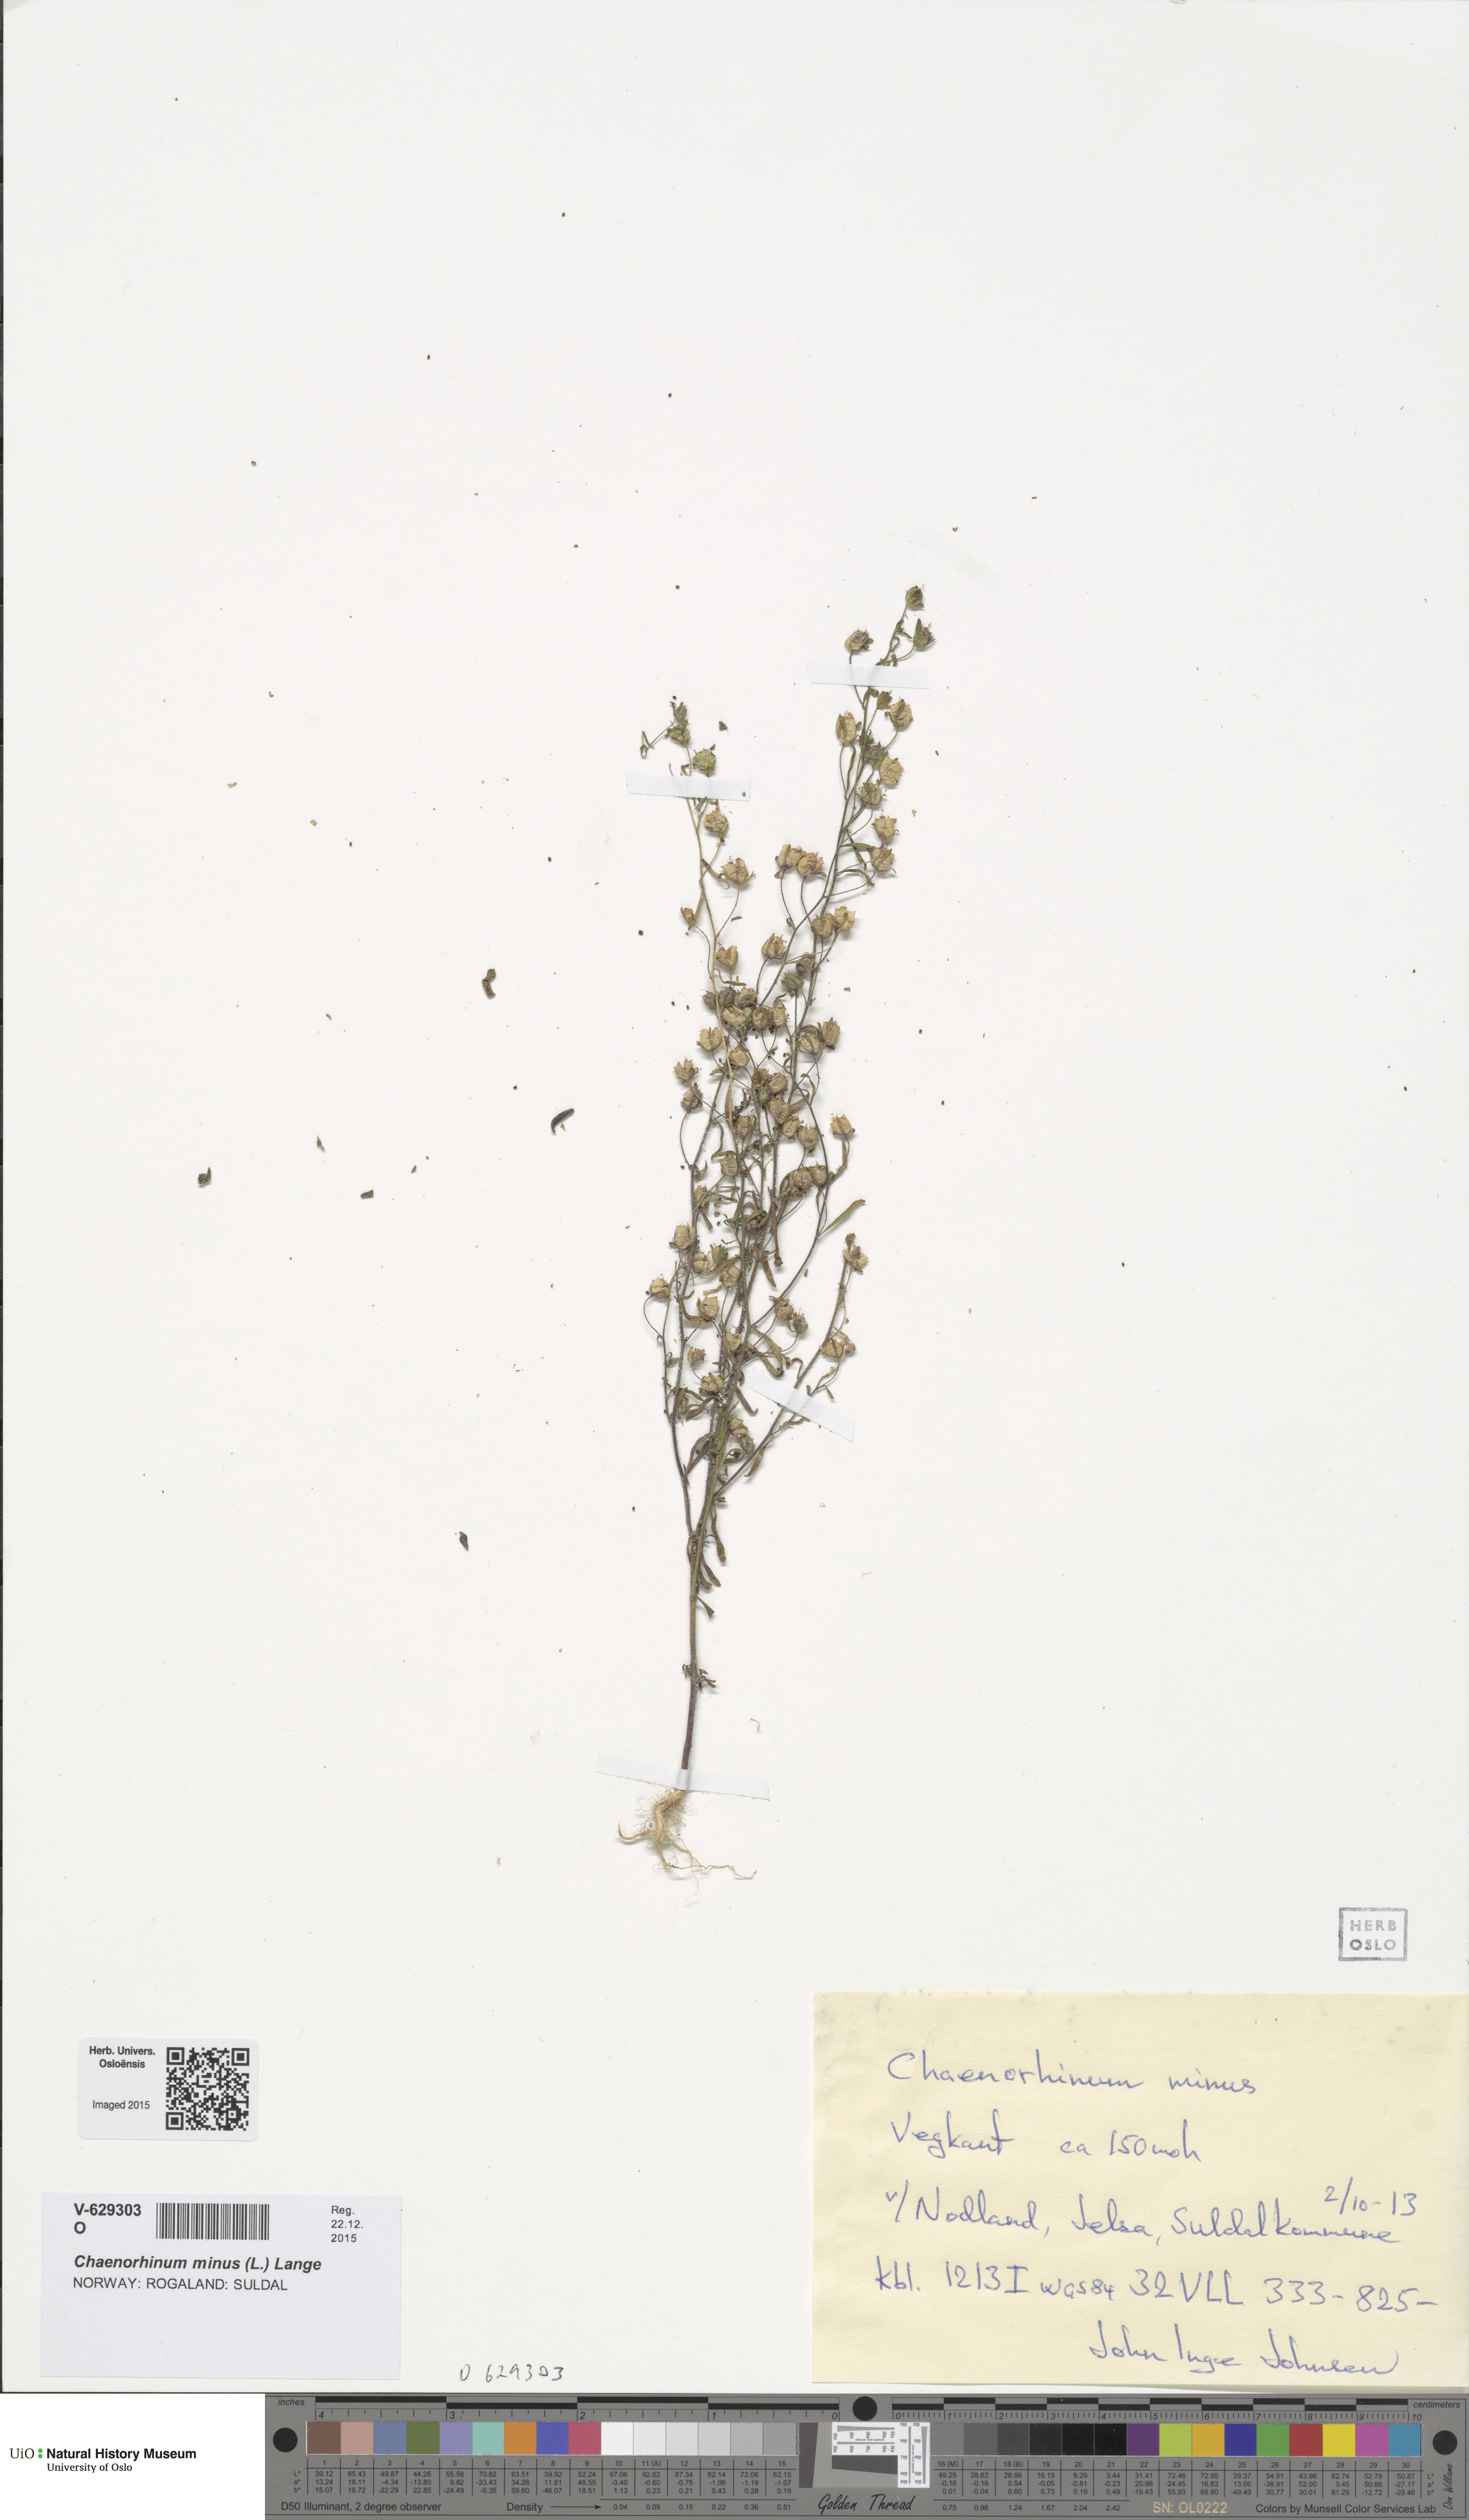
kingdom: Plantae
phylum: Tracheophyta
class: Magnoliopsida
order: Lamiales
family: Plantaginaceae
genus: Chaenorhinum
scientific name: Chaenorhinum minus
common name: Dwarf snapdragon
